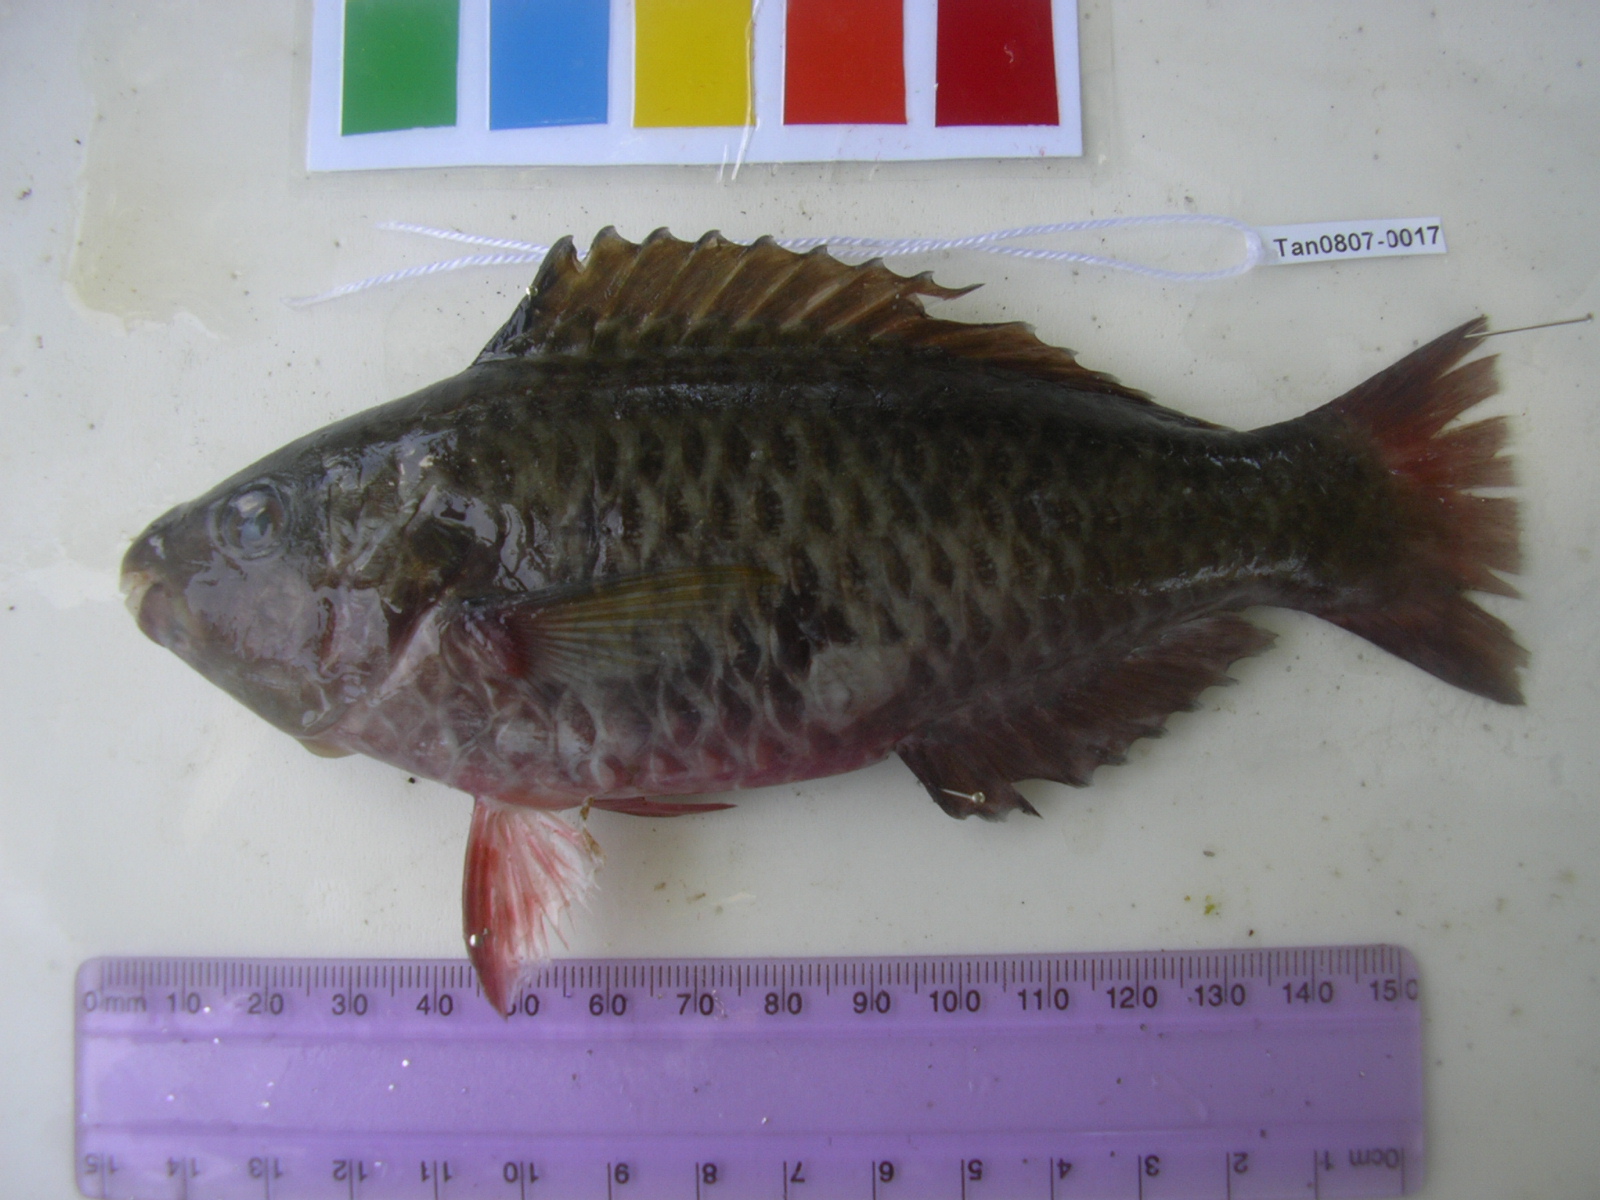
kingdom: Animalia
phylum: Chordata
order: Perciformes
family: Scaridae
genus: Scarus
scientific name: Scarus rubroviolaceus
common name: Ember parrotfish
